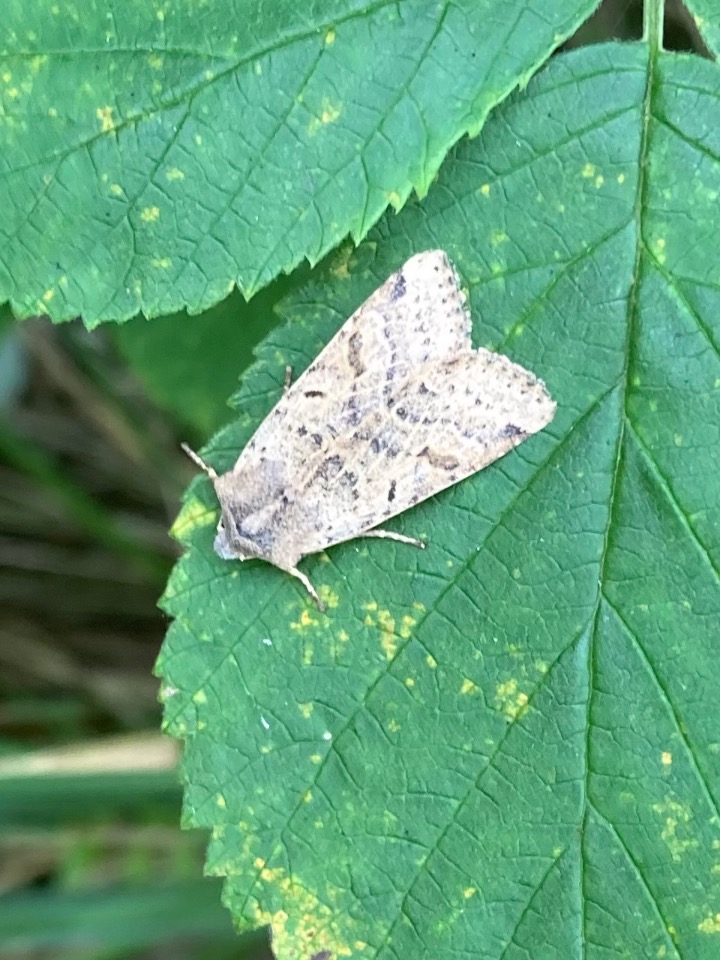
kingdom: Animalia
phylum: Arthropoda
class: Insecta
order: Lepidoptera
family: Noctuidae
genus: Agrochola
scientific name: Agrochola lychnidis
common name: Foranderlig jordfarveugle
